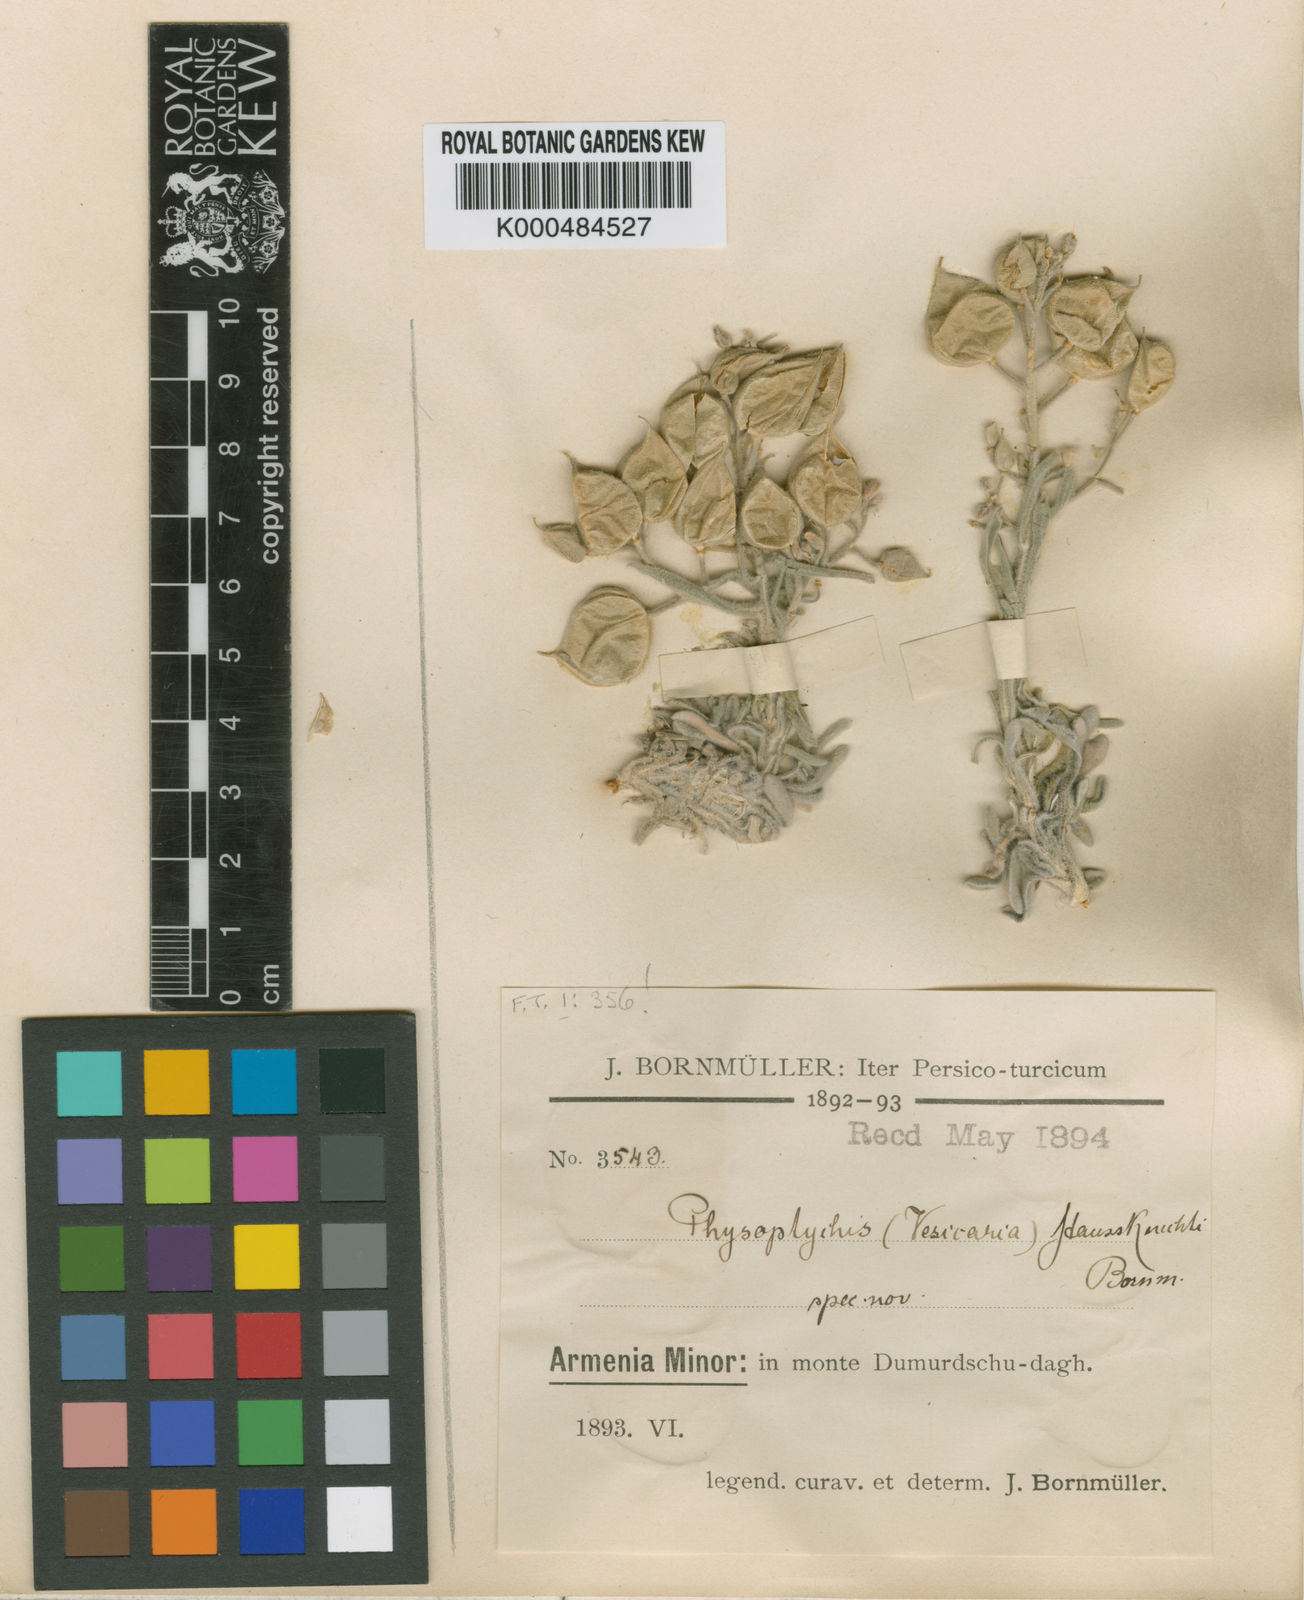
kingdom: Plantae
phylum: Tracheophyta
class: Magnoliopsida
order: Brassicales
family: Brassicaceae
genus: Physoptychis
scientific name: Physoptychis haussknechtii
